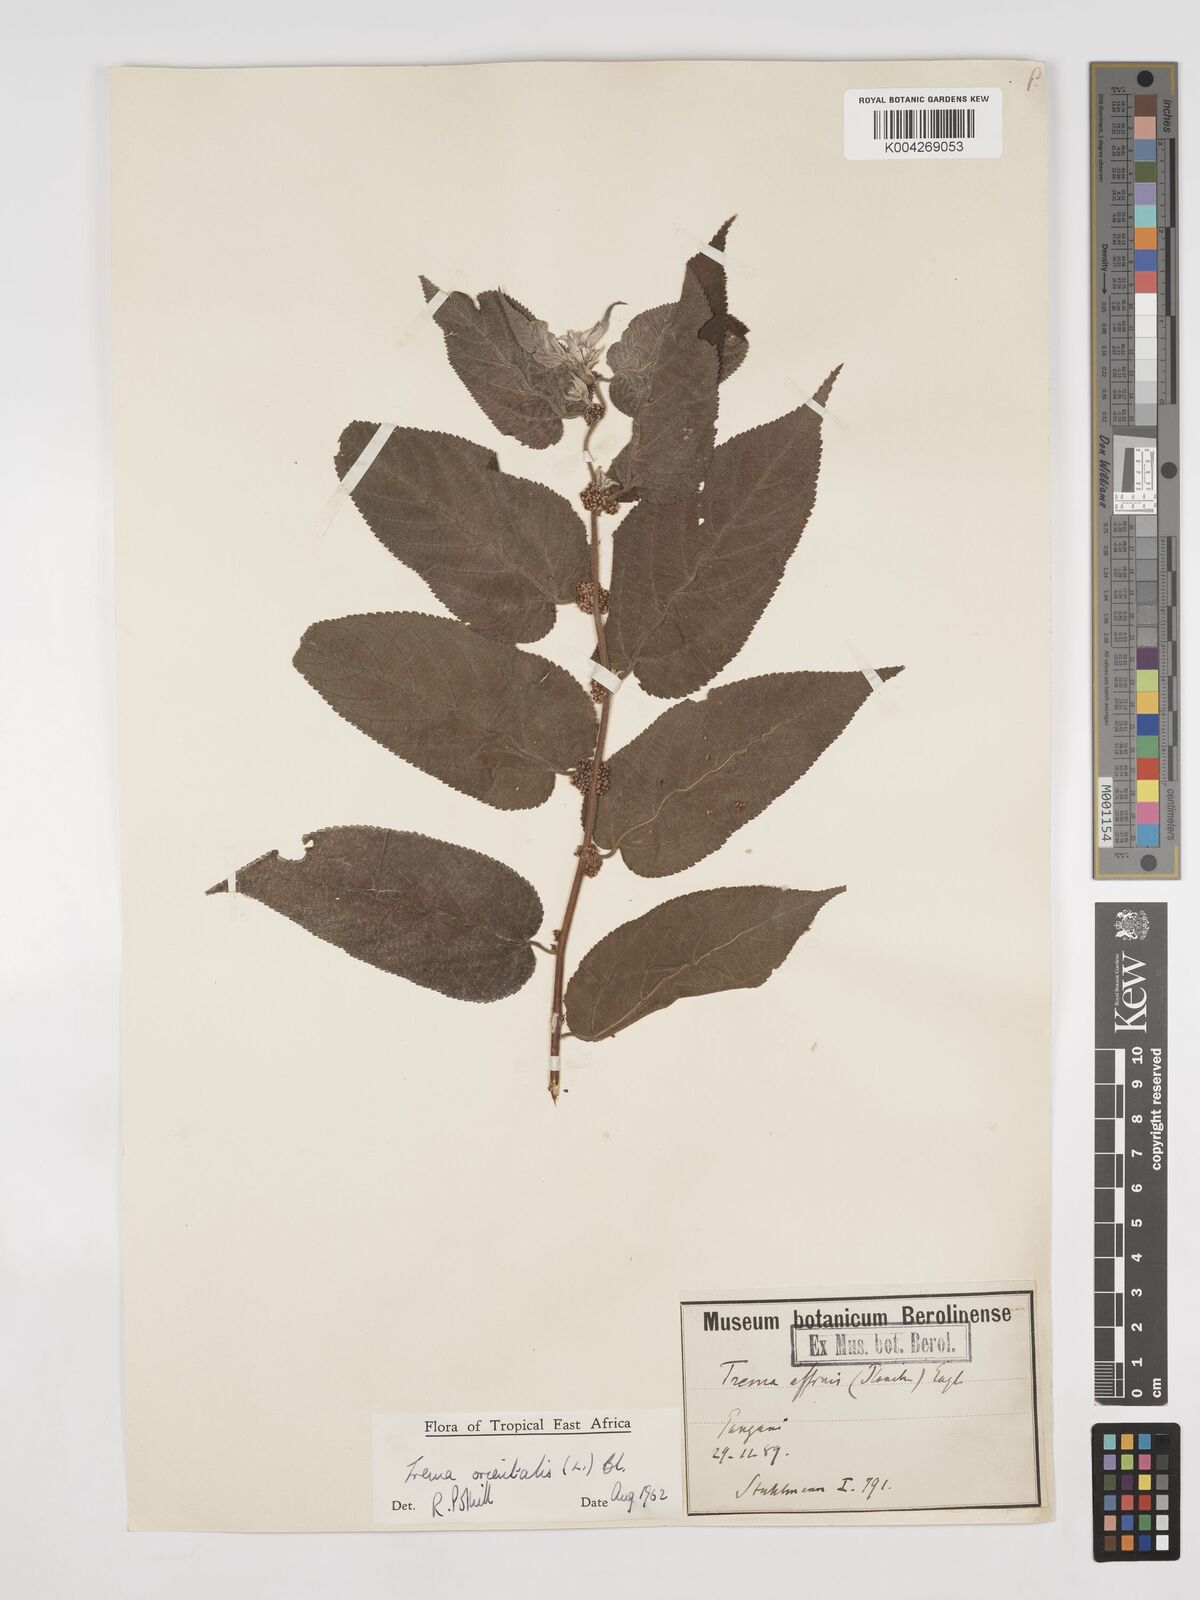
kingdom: Plantae
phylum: Tracheophyta
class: Magnoliopsida
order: Rosales
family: Cannabaceae
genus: Trema
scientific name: Trema orientale
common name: Indian charcoal tree
